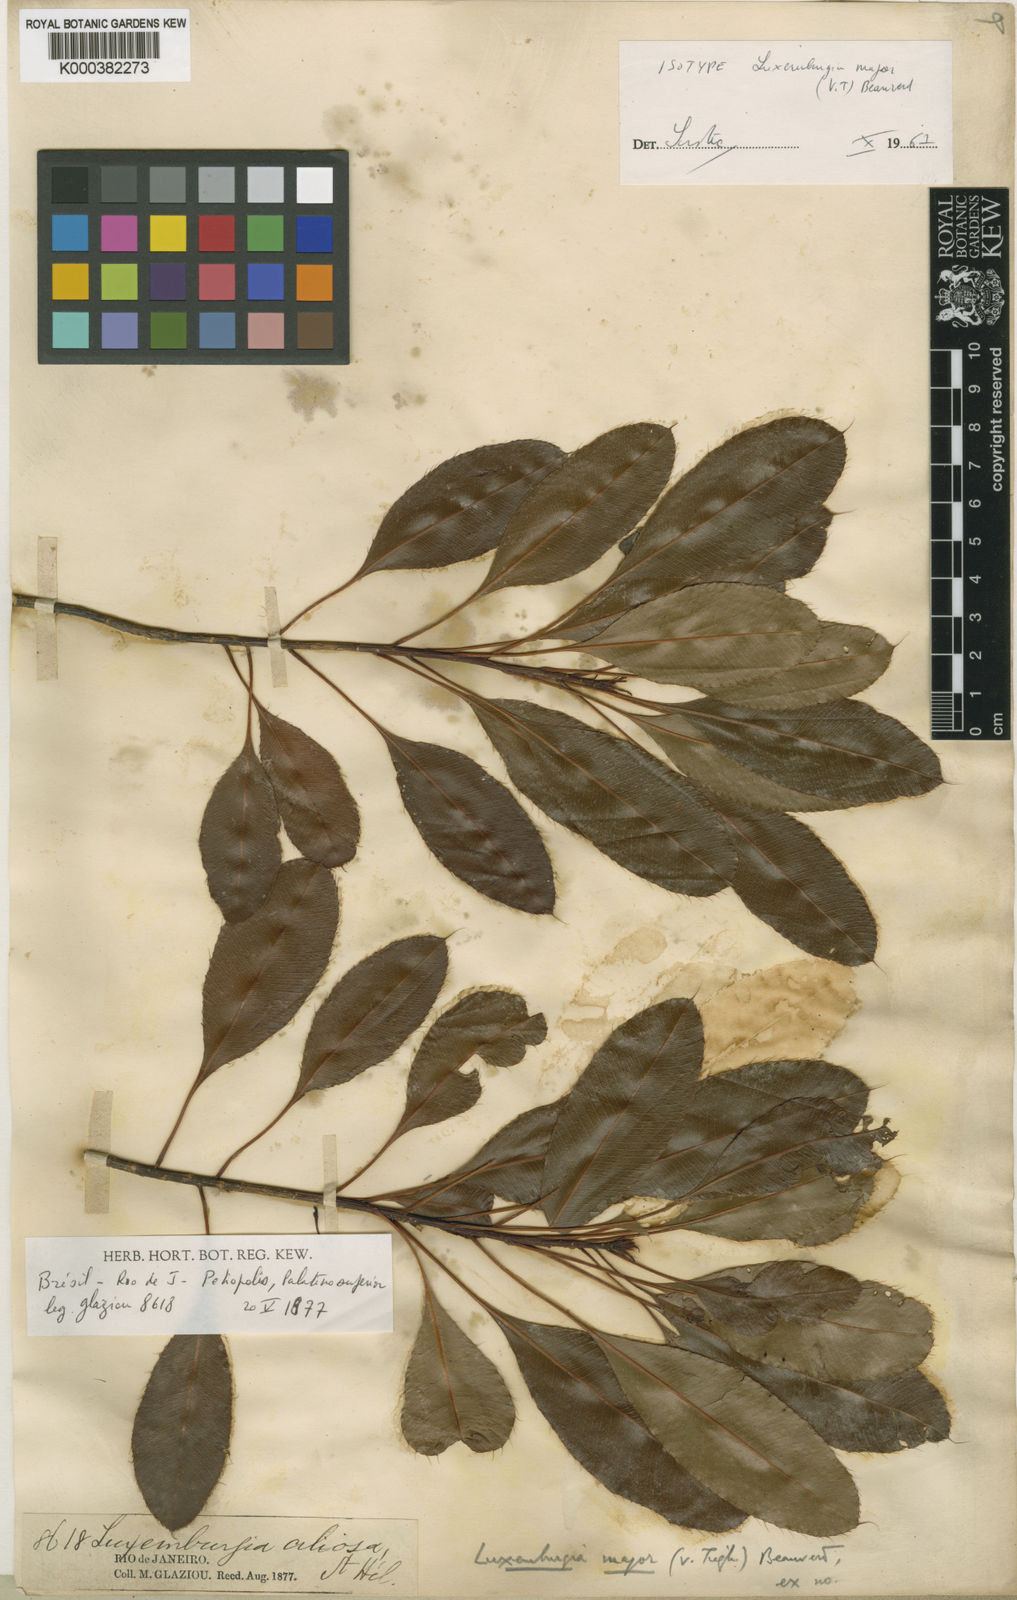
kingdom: Plantae
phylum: Tracheophyta
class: Magnoliopsida
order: Malpighiales
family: Ochnaceae
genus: Luxemburgia
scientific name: Luxemburgia ciliosa
